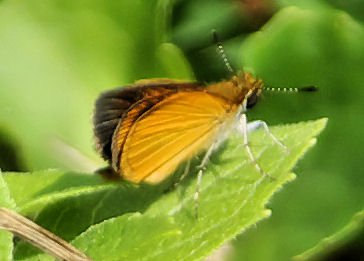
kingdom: Animalia
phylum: Arthropoda
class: Insecta
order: Lepidoptera
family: Hesperiidae
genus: Ancyloxypha
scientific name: Ancyloxypha numitor
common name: Least Skipper
